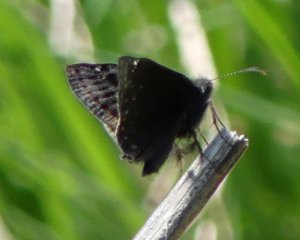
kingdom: Animalia
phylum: Arthropoda
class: Insecta
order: Lepidoptera
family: Hesperiidae
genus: Gesta
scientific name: Gesta
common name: Wild Indigo Duskywing
